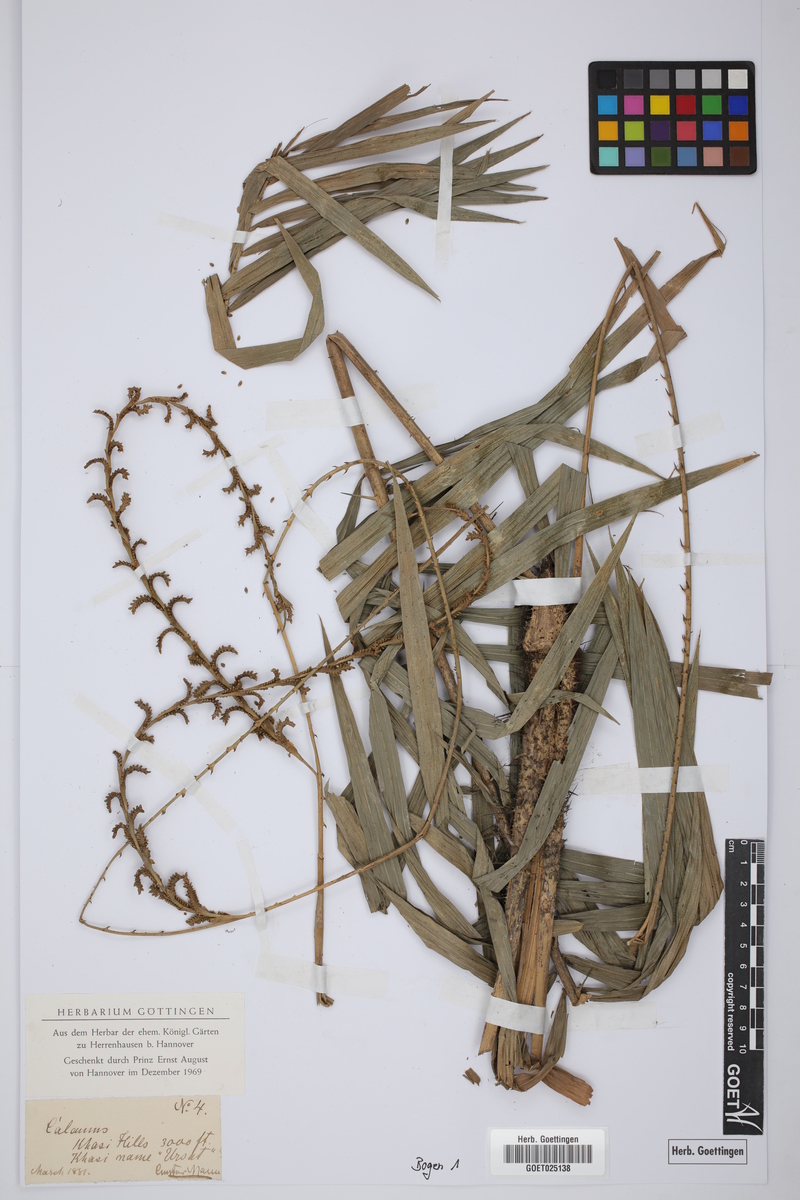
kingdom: Plantae
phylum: Tracheophyta
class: Liliopsida
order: Arecales
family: Arecaceae
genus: Calamus
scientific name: Calamus
